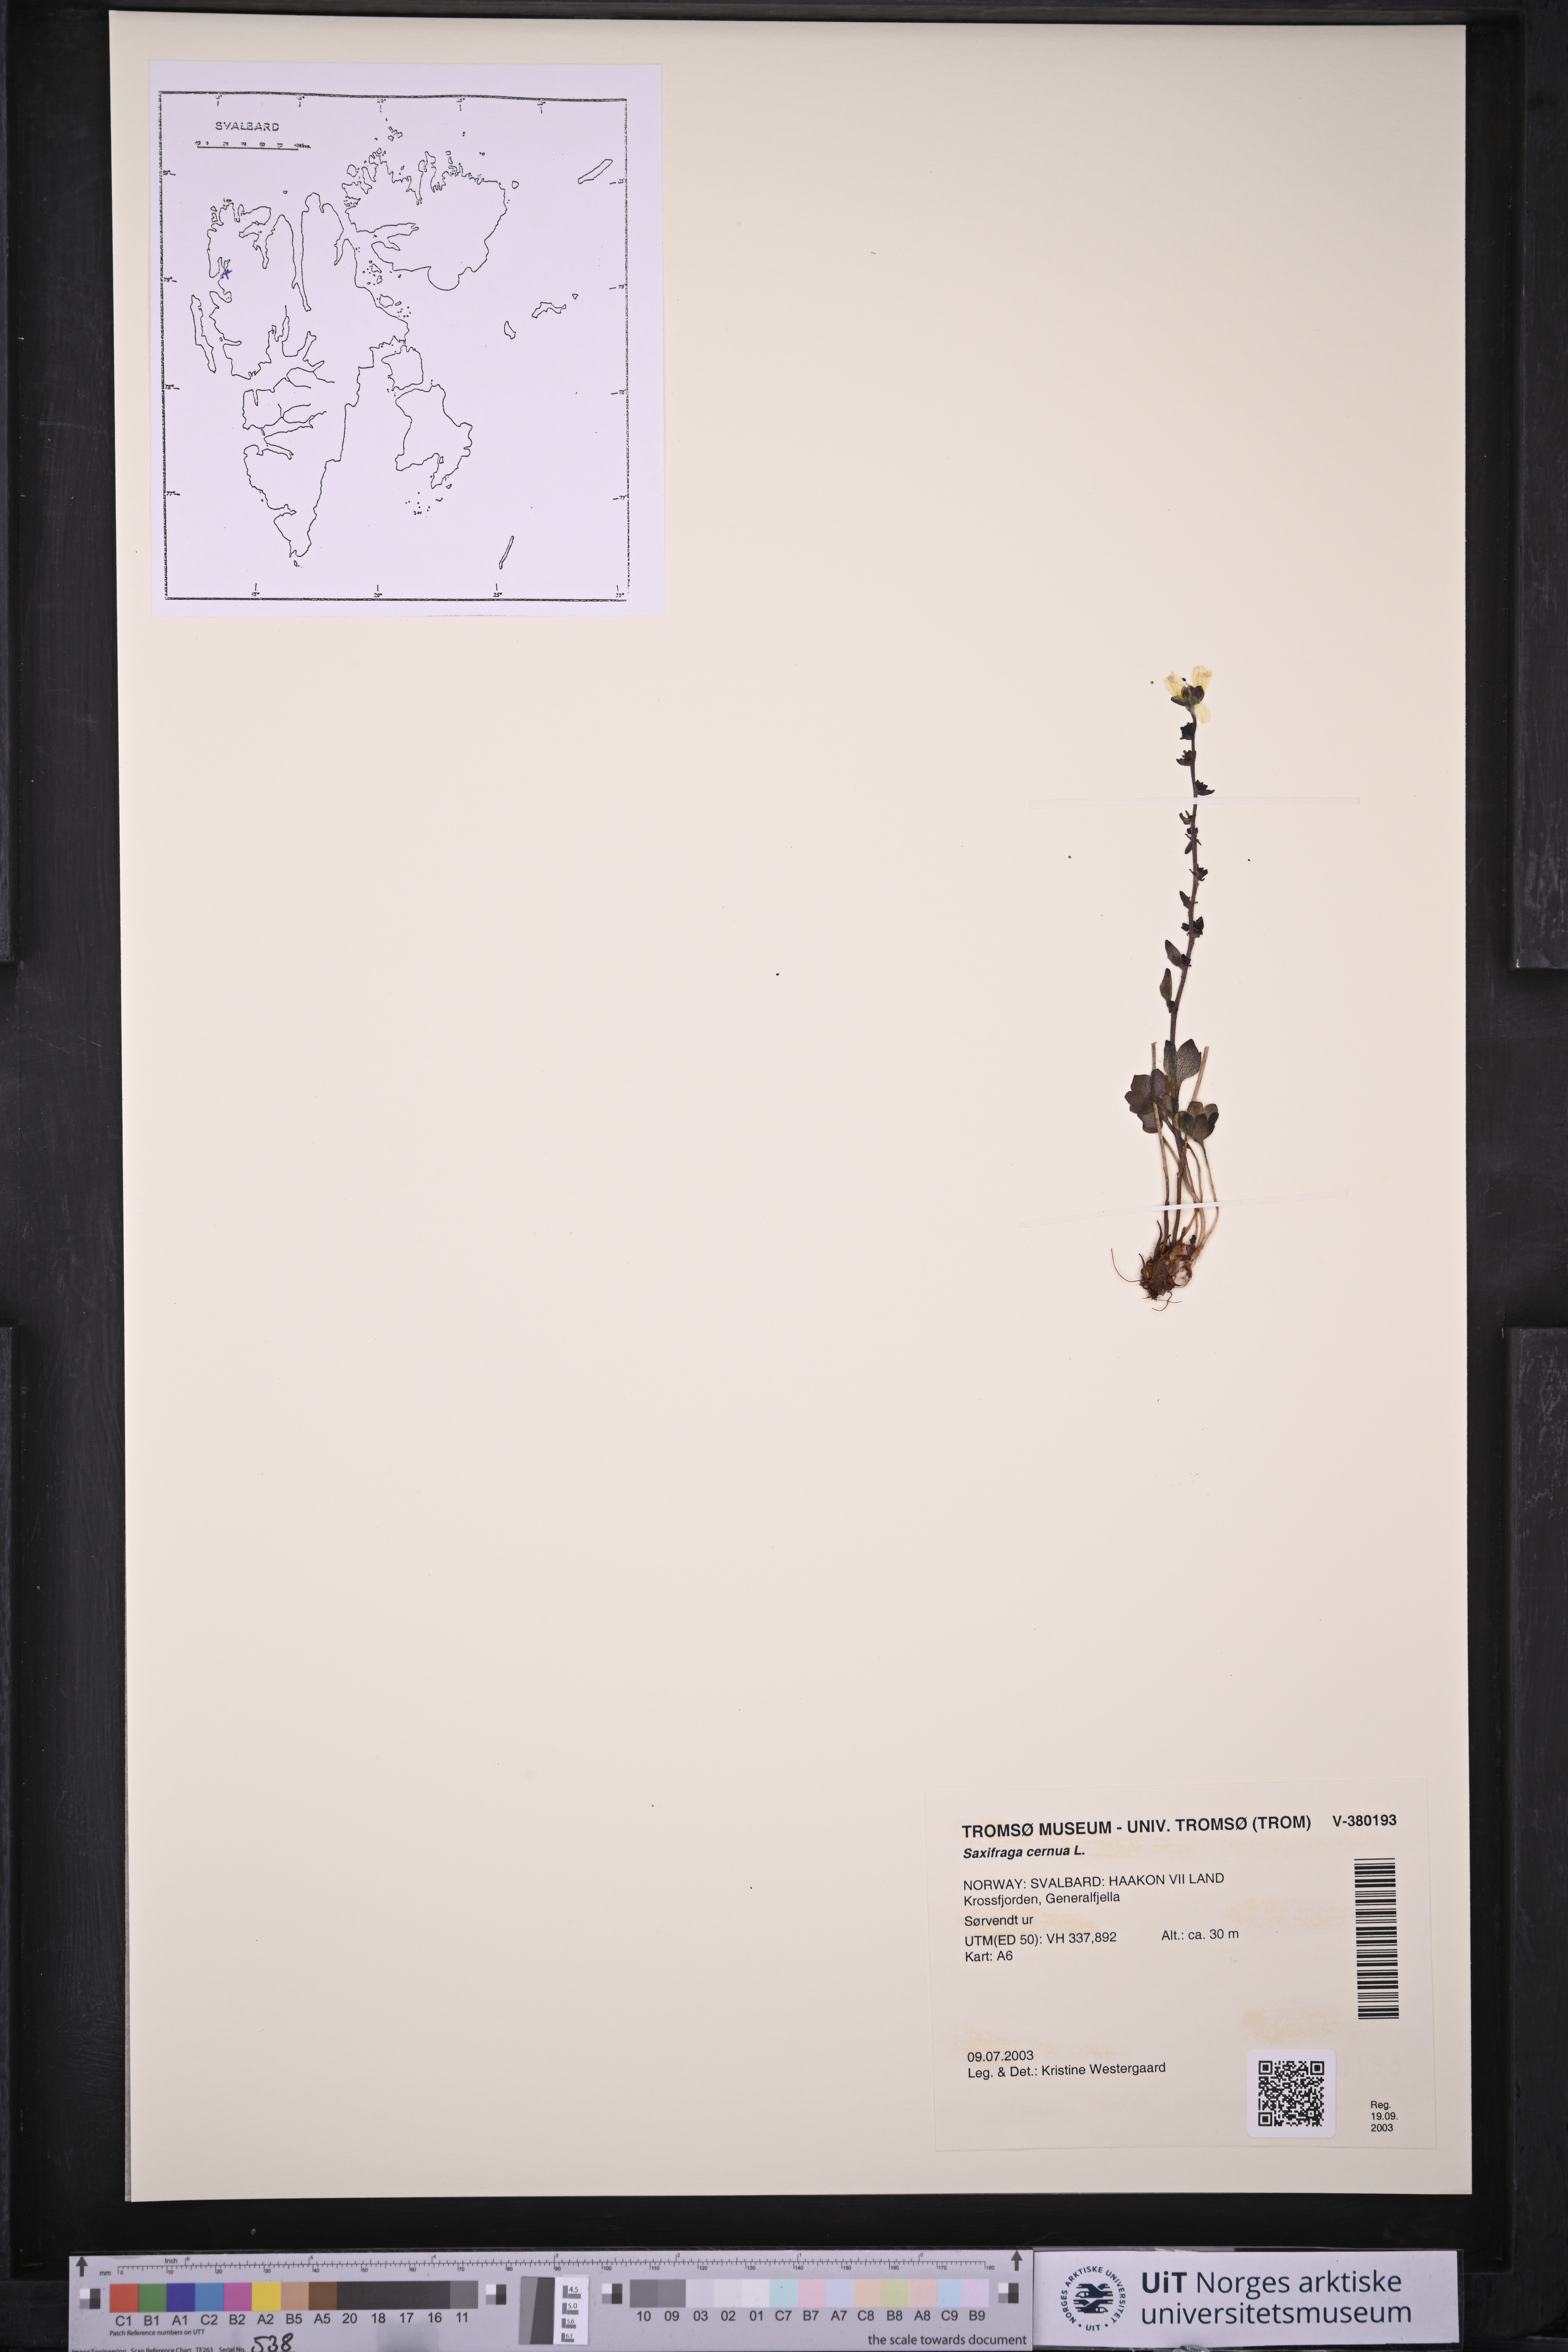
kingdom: Plantae
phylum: Tracheophyta
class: Magnoliopsida
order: Saxifragales
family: Saxifragaceae
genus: Saxifraga
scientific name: Saxifraga cernua
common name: Drooping saxifrage
